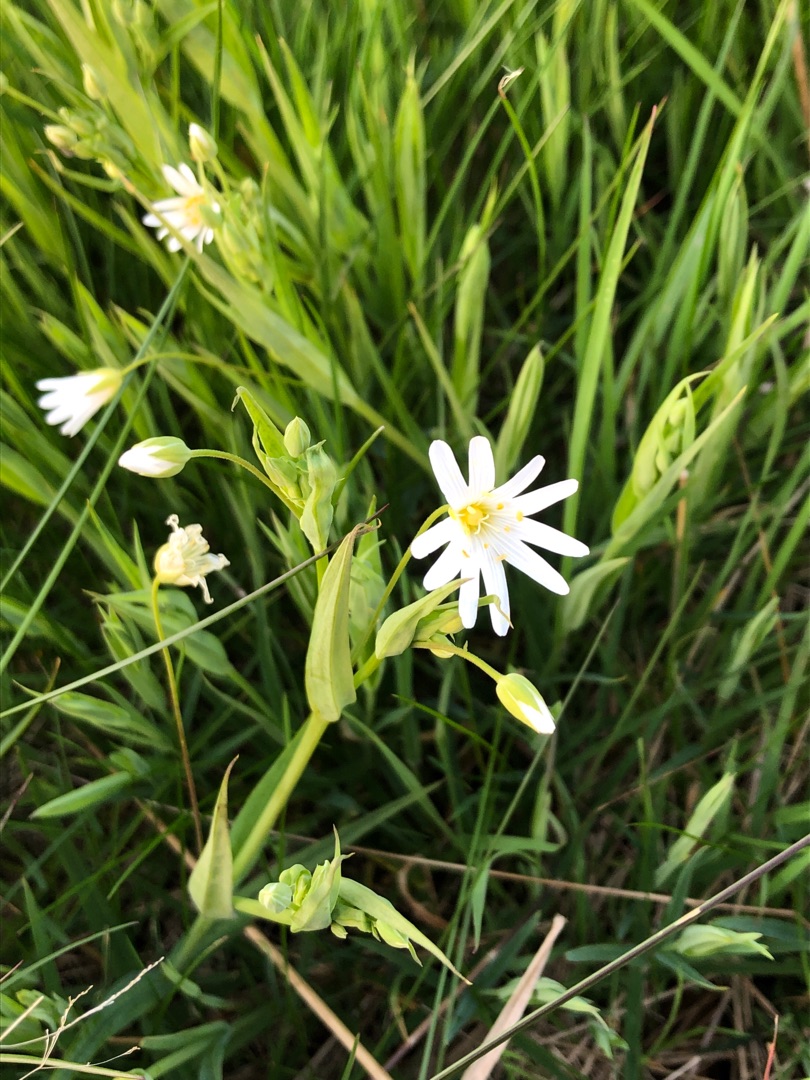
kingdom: Plantae
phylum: Tracheophyta
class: Magnoliopsida
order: Caryophyllales
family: Caryophyllaceae
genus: Rabelera
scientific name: Rabelera holostea
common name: Stor fladstjerne
